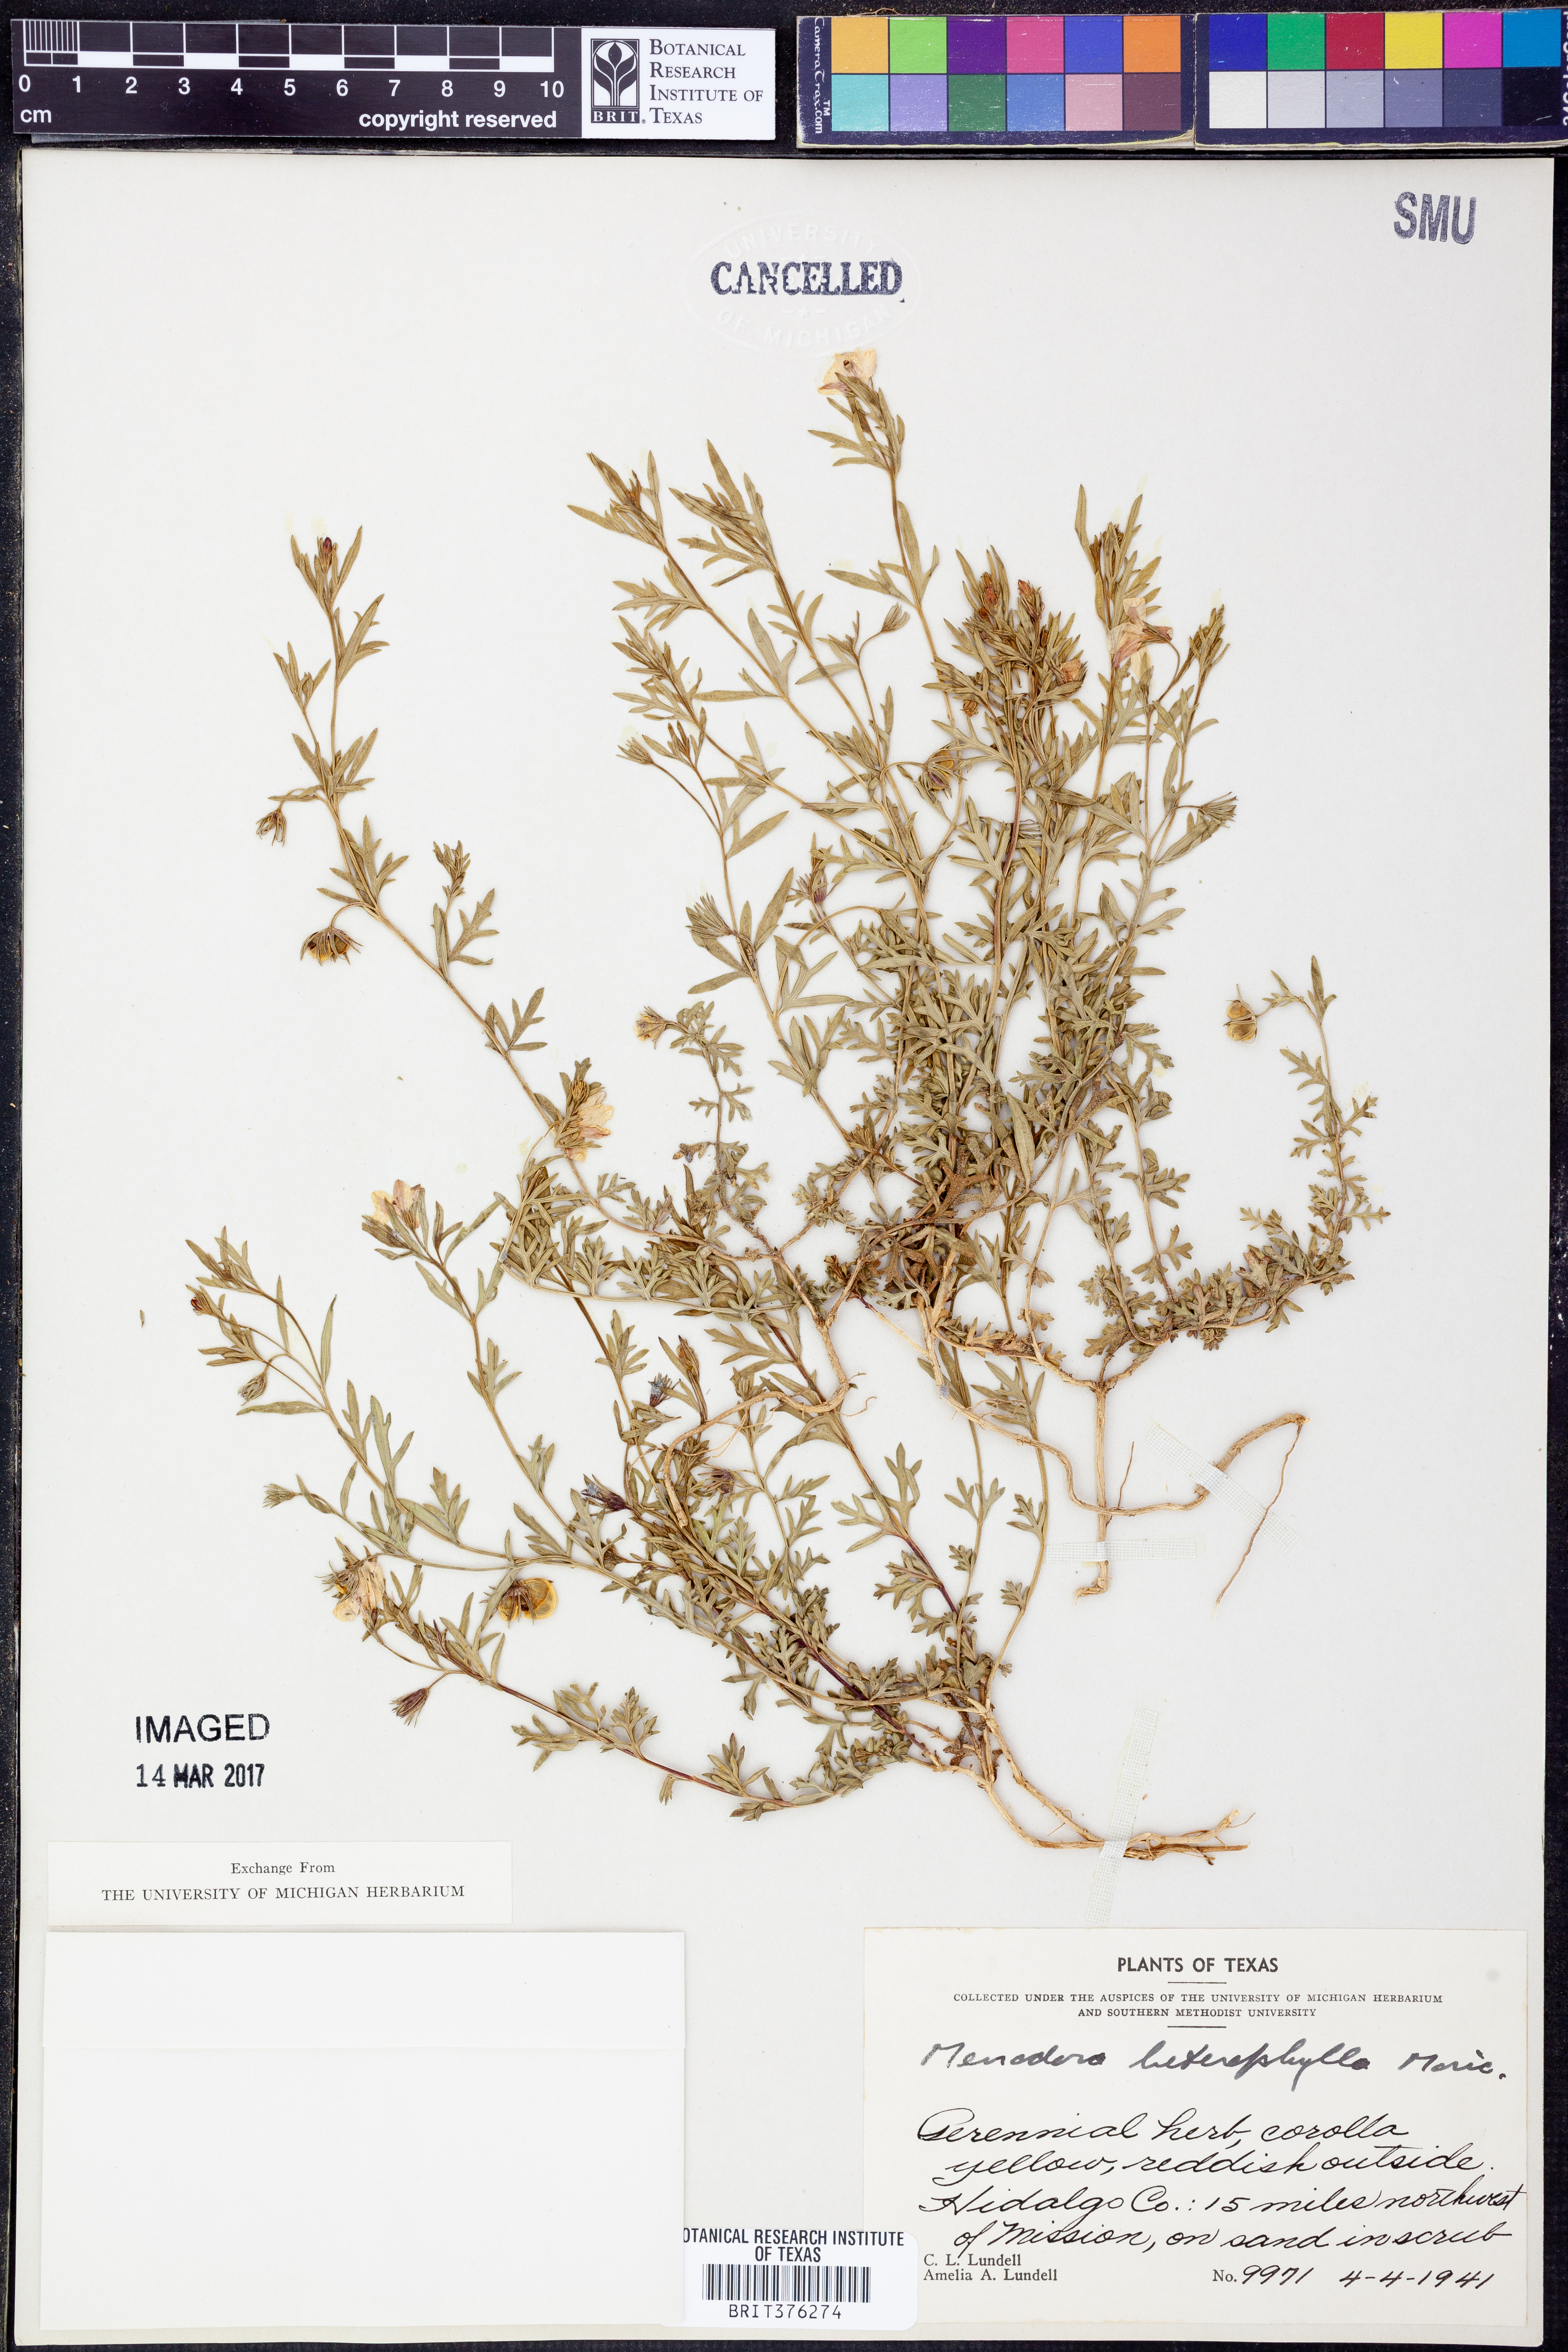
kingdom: Plantae
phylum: Tracheophyta
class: Magnoliopsida
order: Lamiales
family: Oleaceae
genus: Menodora
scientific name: Menodora heterophylla
